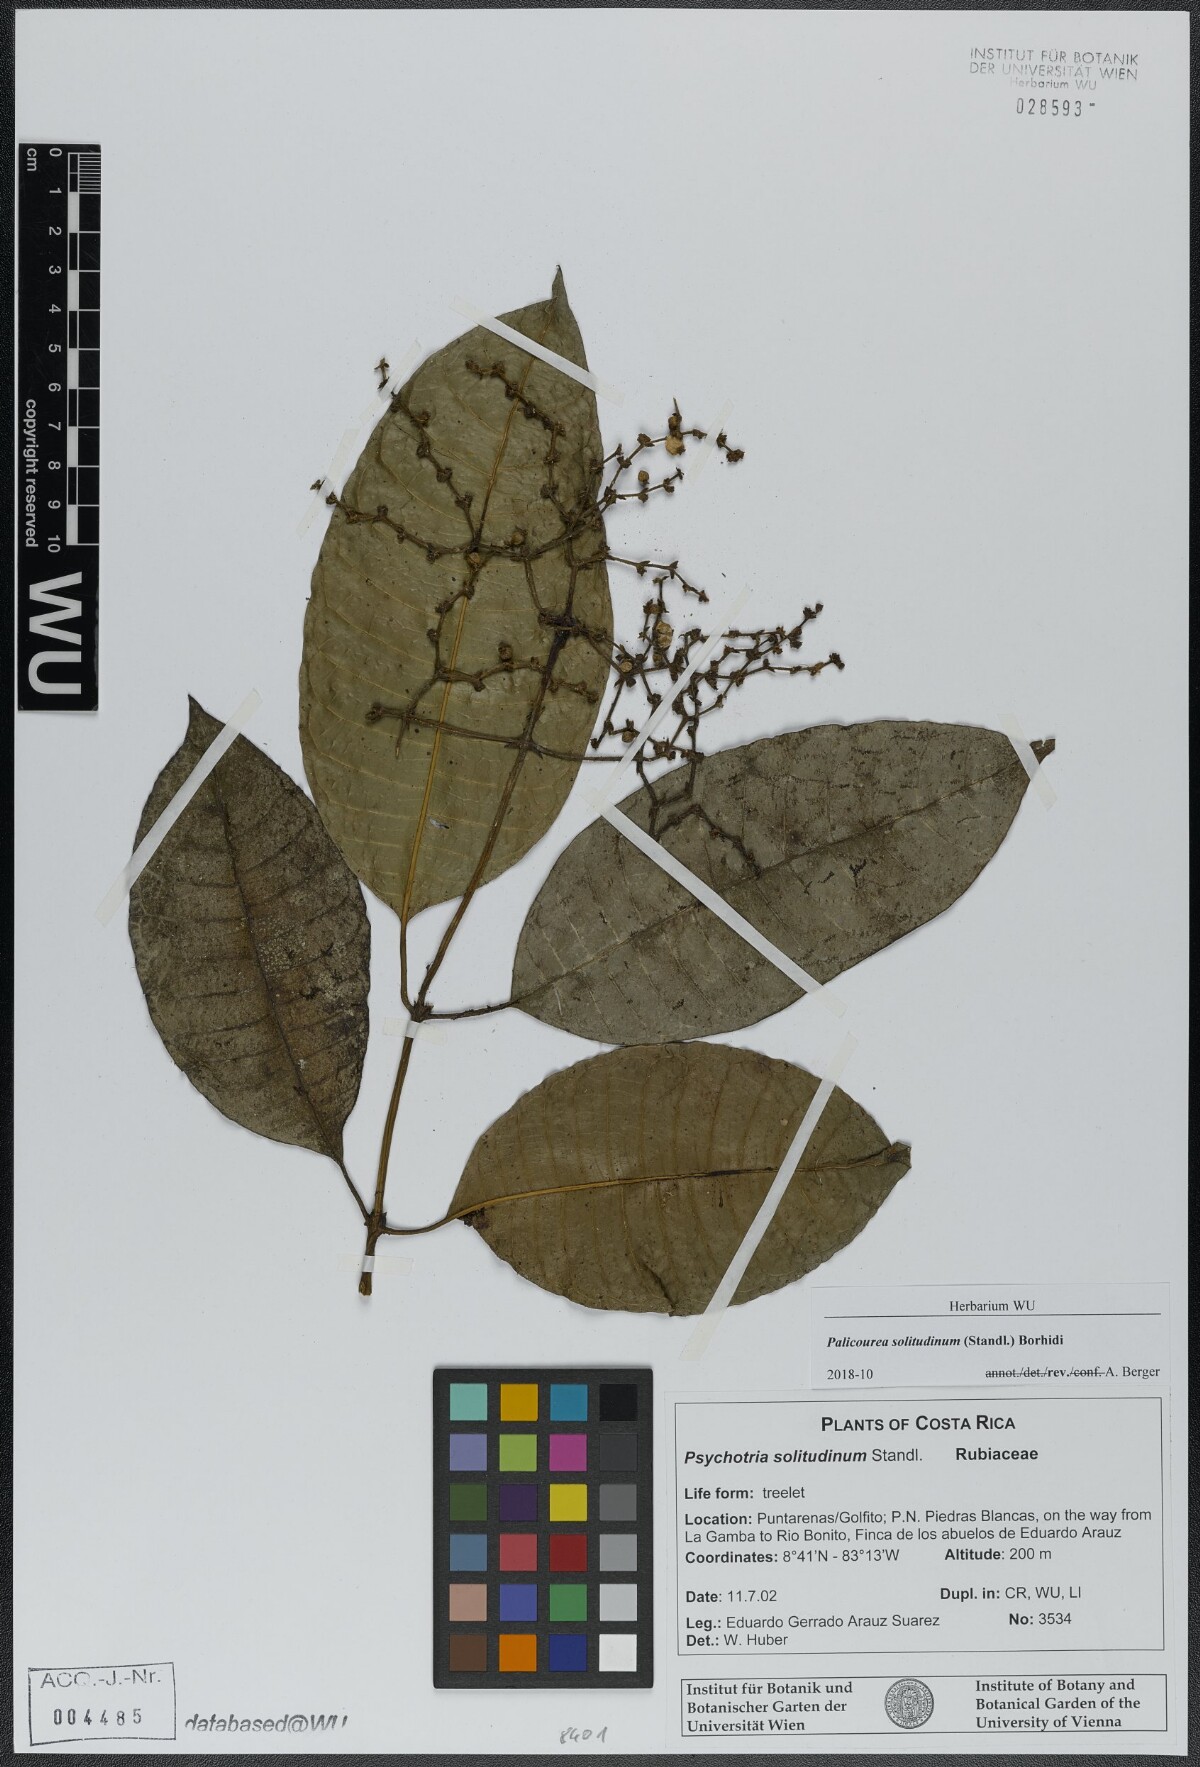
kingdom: Plantae
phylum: Tracheophyta
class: Magnoliopsida
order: Gentianales
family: Rubiaceae
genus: Palicourea
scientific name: Palicourea solitudinum
